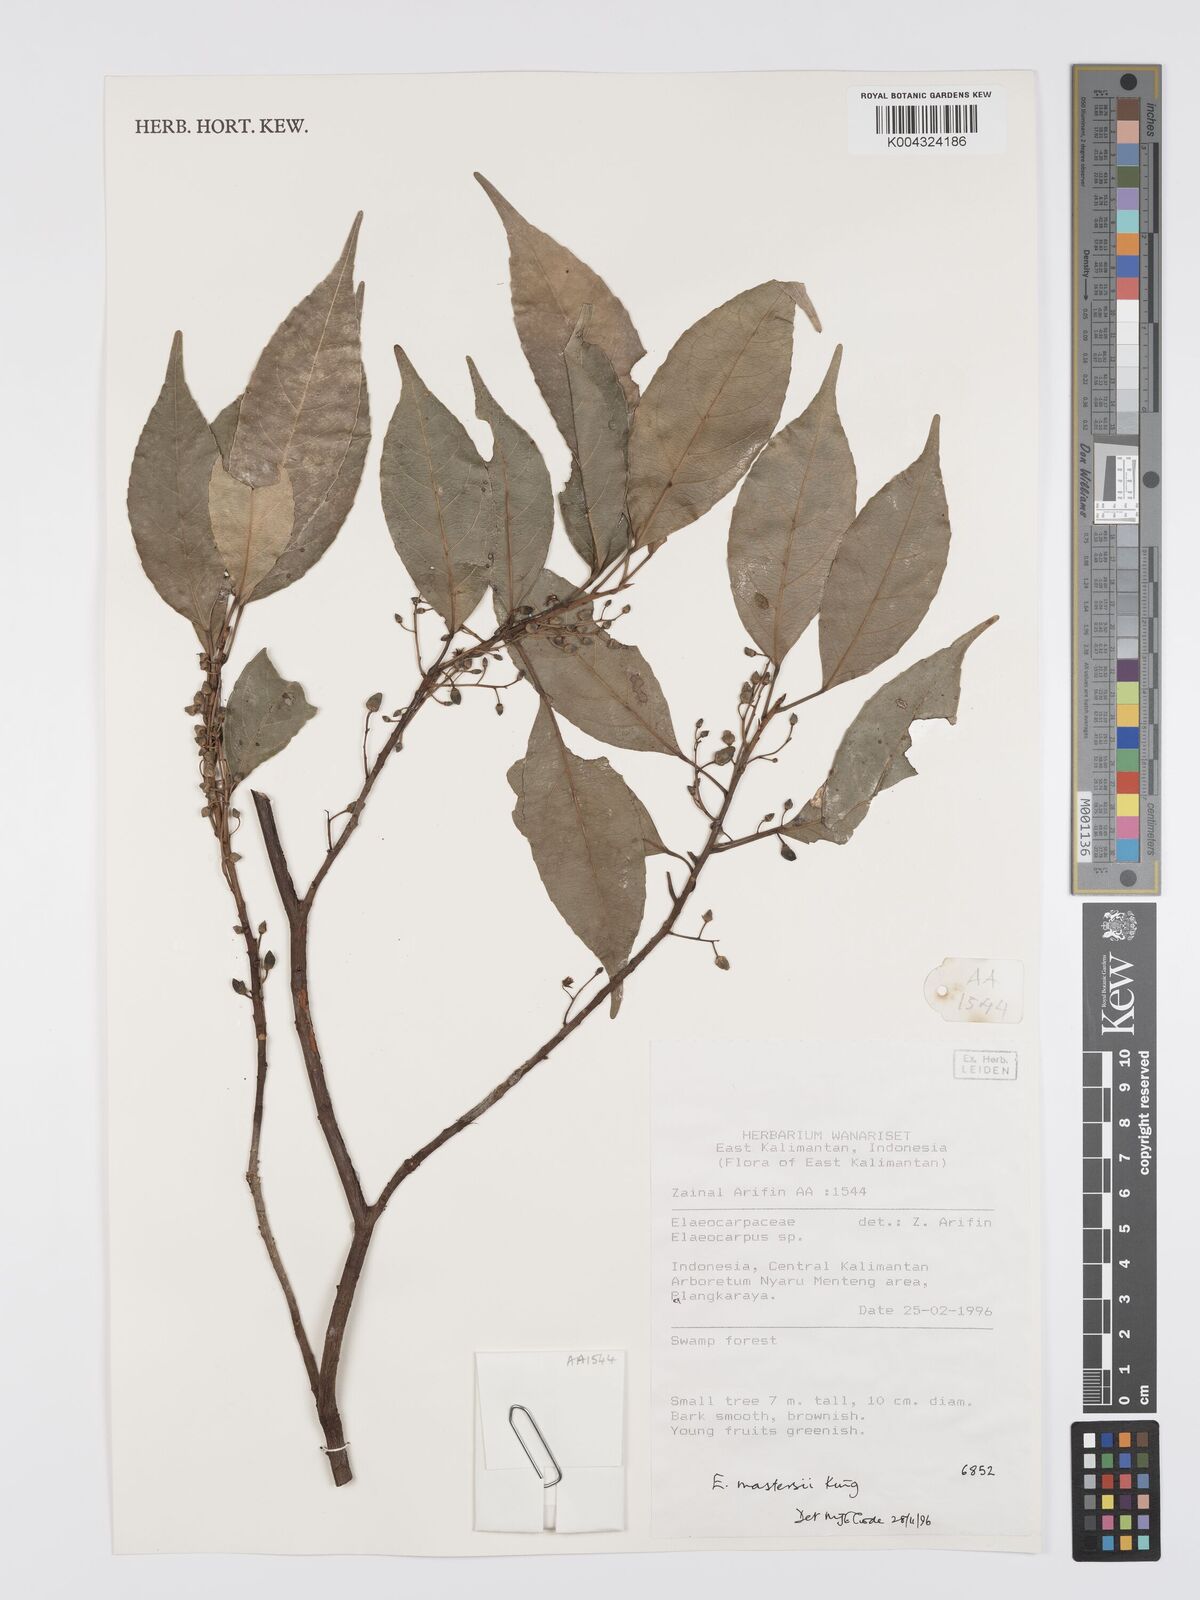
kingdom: Plantae
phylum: Tracheophyta
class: Magnoliopsida
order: Oxalidales
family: Elaeocarpaceae
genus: Elaeocarpus
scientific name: Elaeocarpus mastersii
